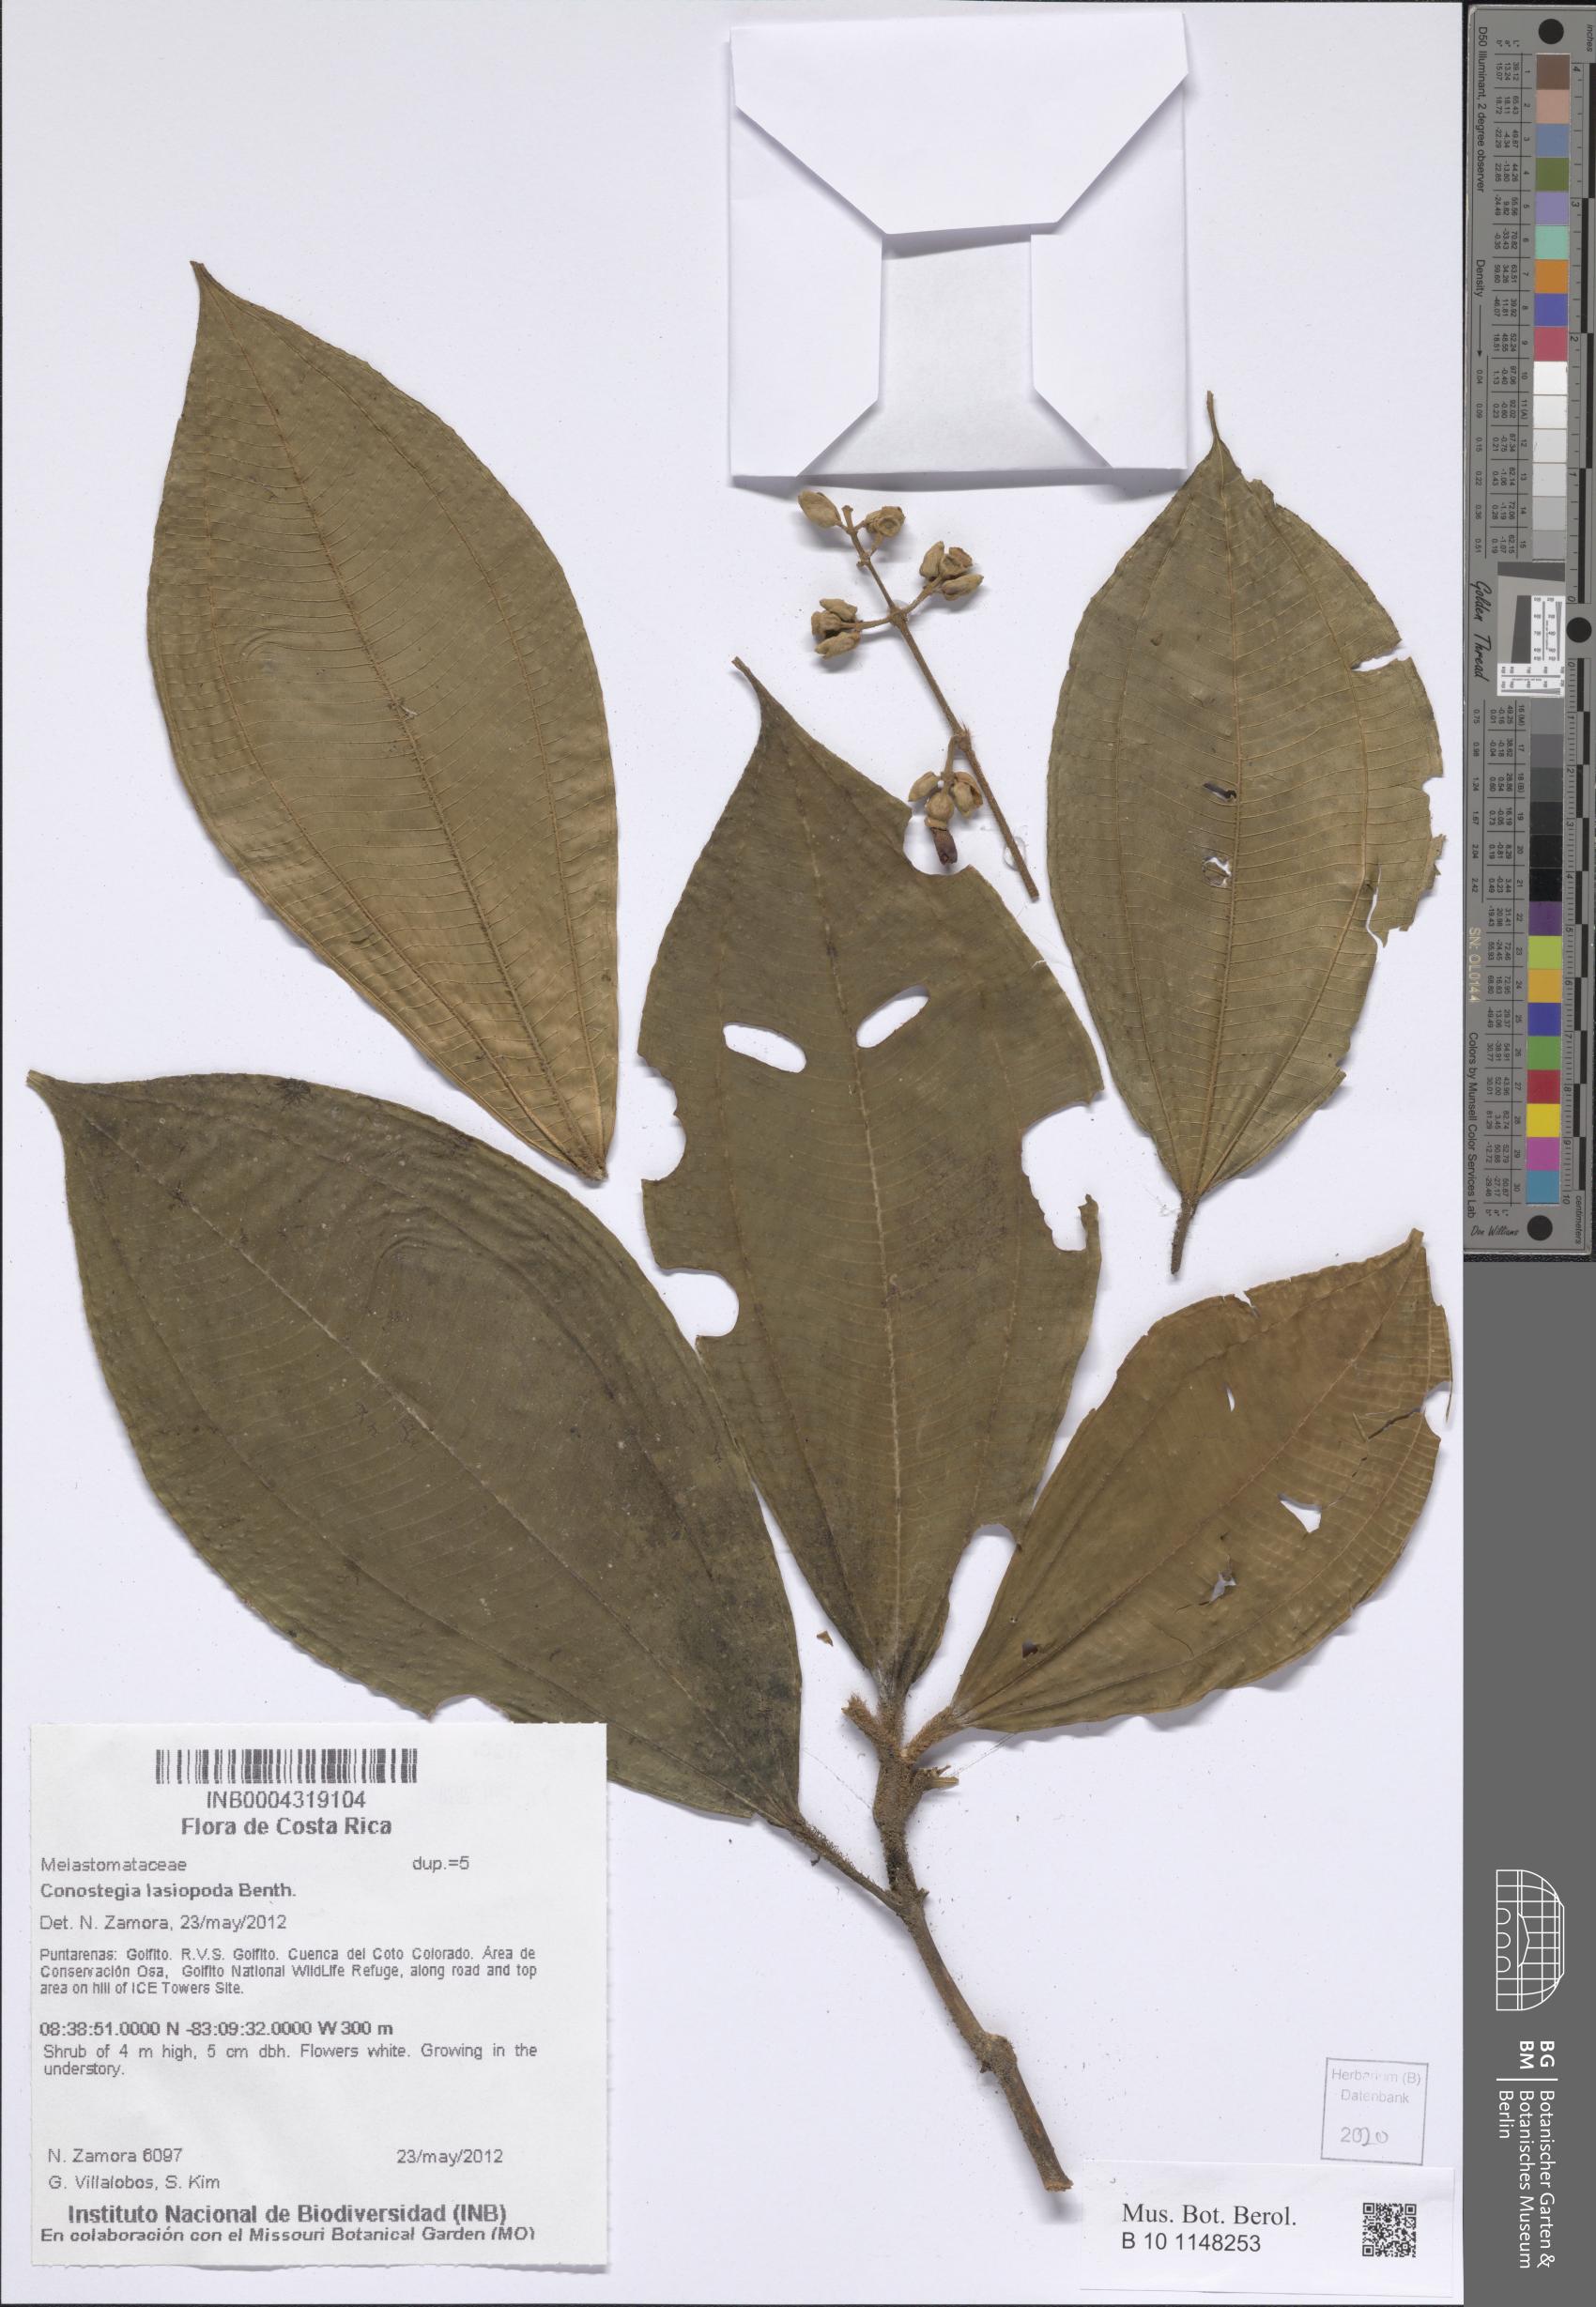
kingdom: Plantae
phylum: Tracheophyta
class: Magnoliopsida
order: Myrtales
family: Melastomataceae
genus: Miconia
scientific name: Miconia lasiopoda
